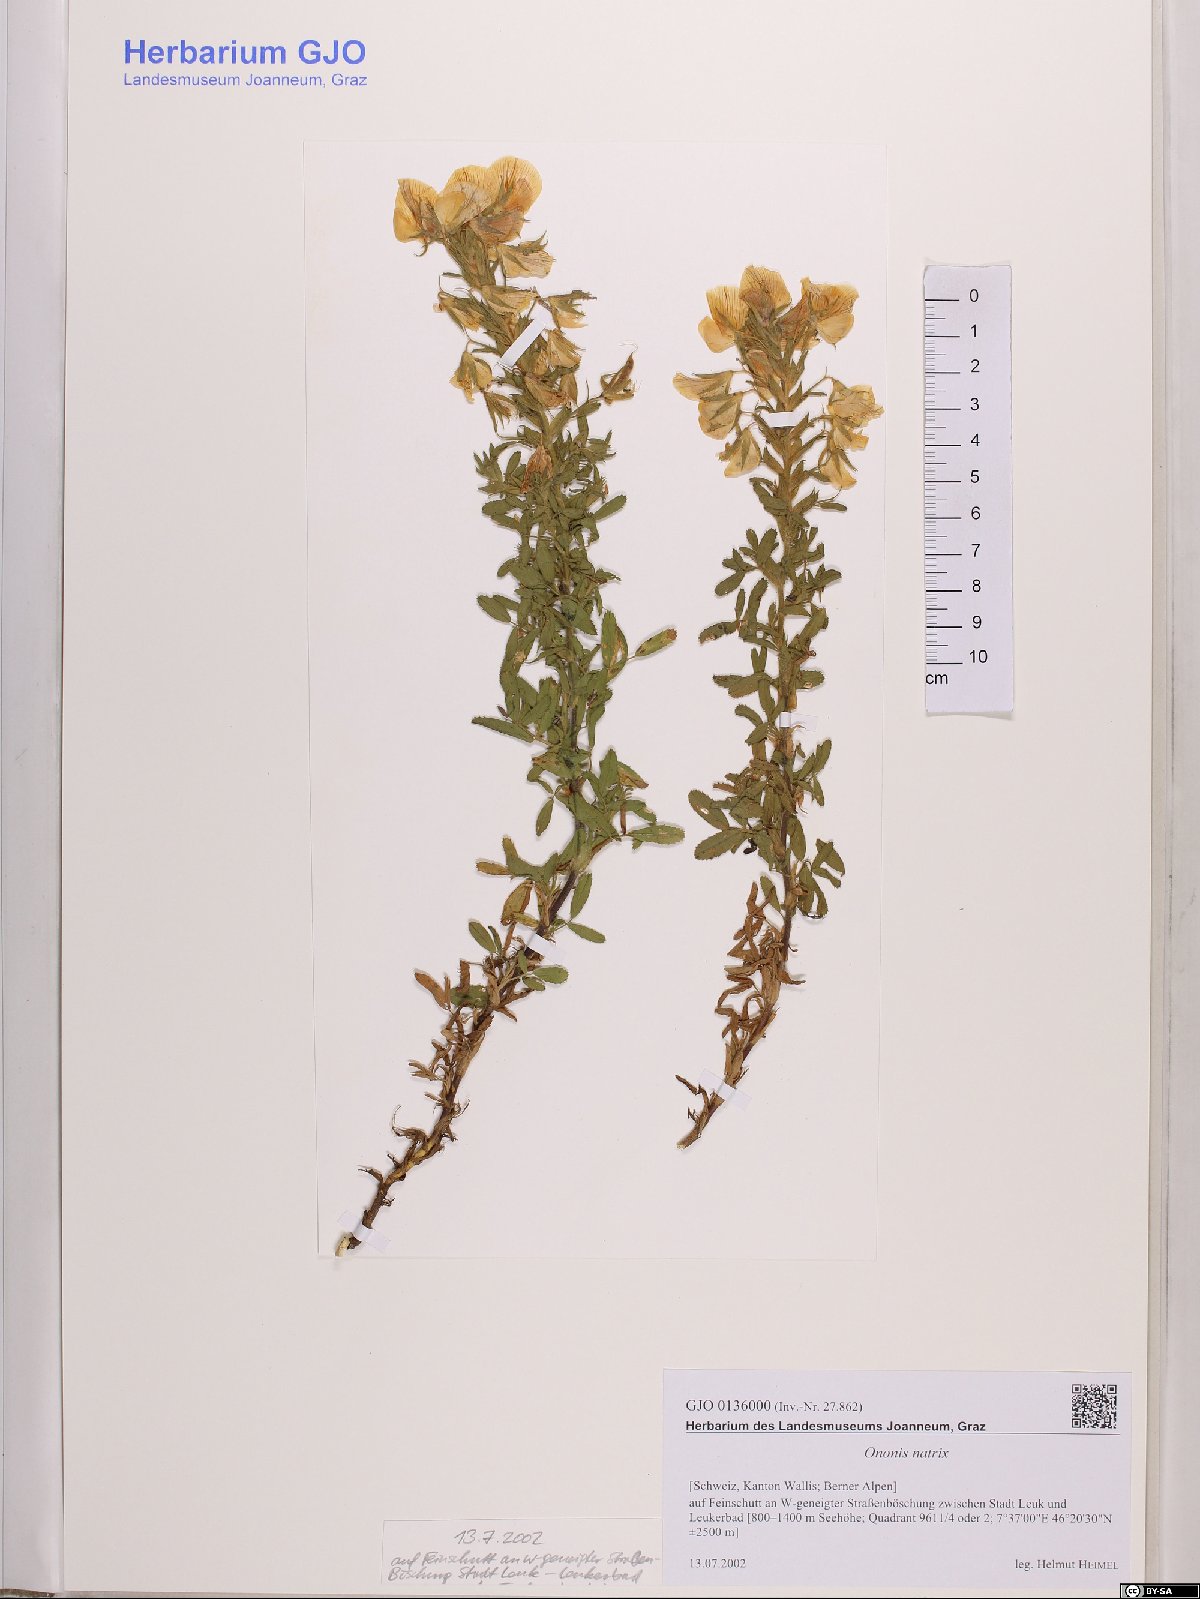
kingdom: Plantae
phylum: Tracheophyta
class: Magnoliopsida
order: Fabales
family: Fabaceae
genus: Ononis
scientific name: Ononis natrix
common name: Yellow restharrow
